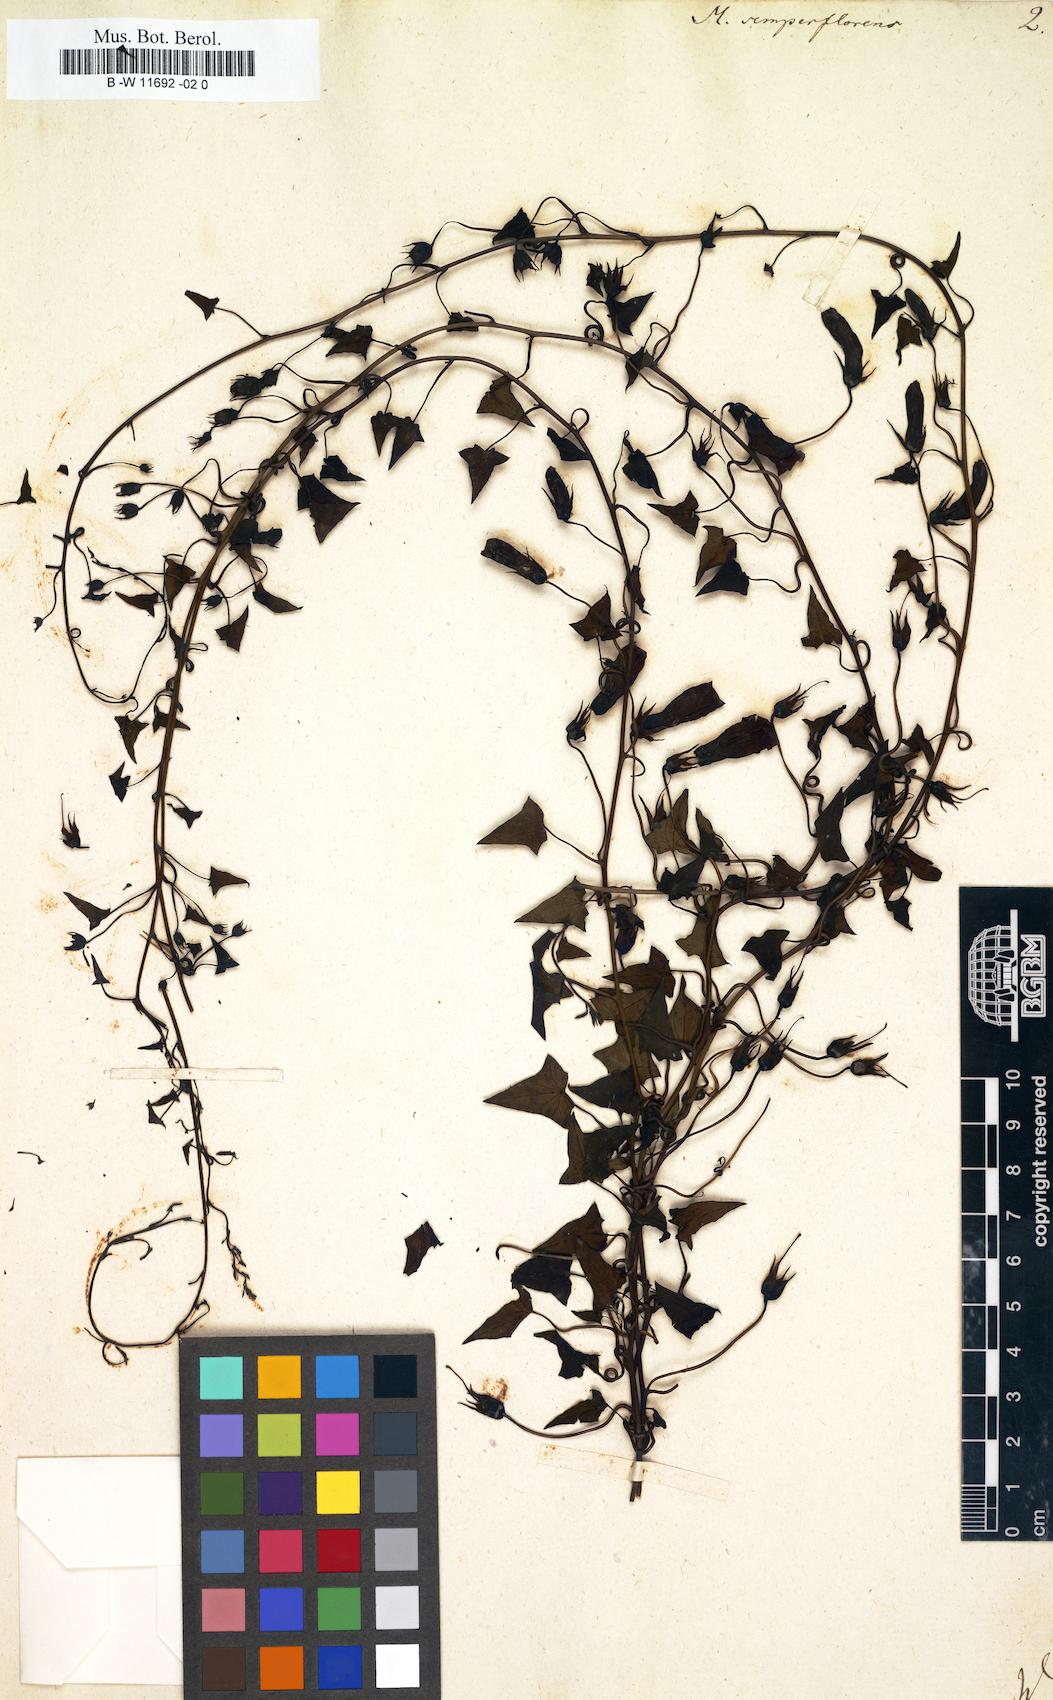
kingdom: Plantae
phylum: Tracheophyta
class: Magnoliopsida
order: Lamiales
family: Scrophulariaceae
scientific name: Scrophulariaceae
